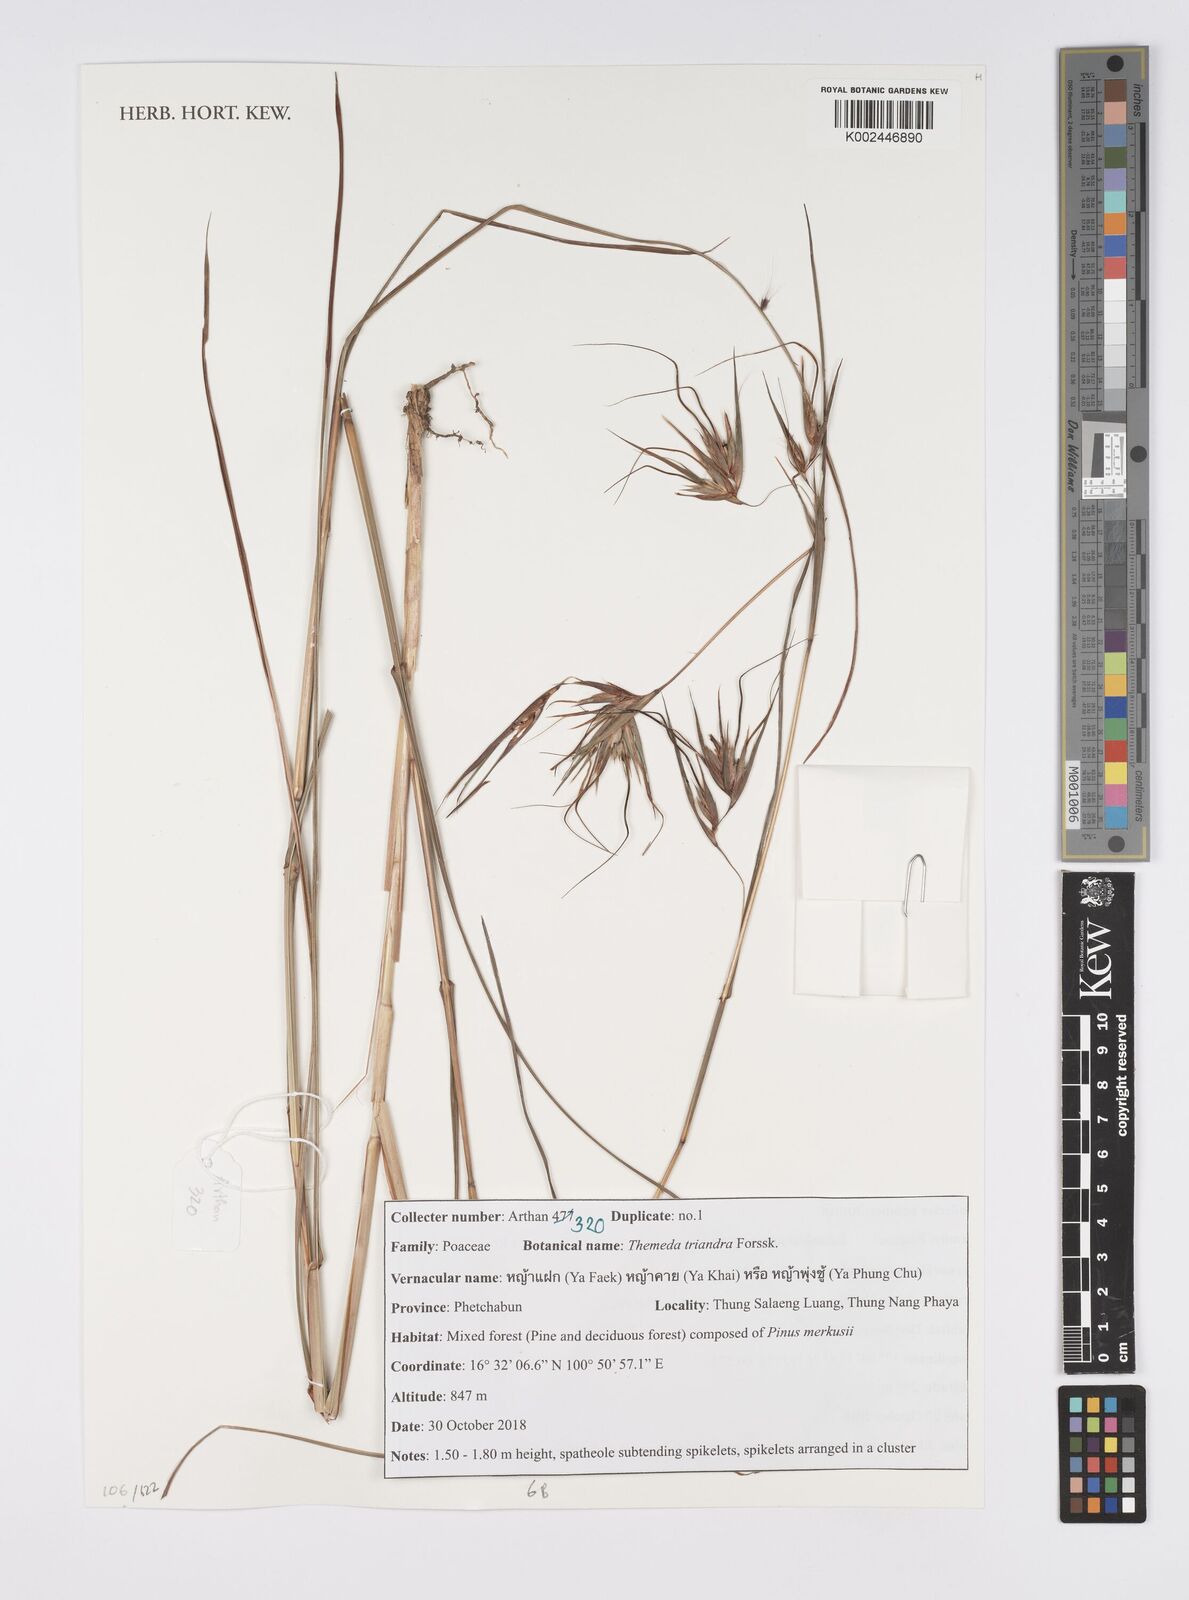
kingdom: Plantae
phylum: Tracheophyta
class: Liliopsida
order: Poales
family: Poaceae
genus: Themeda
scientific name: Themeda triandra
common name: Kangaroo grass
